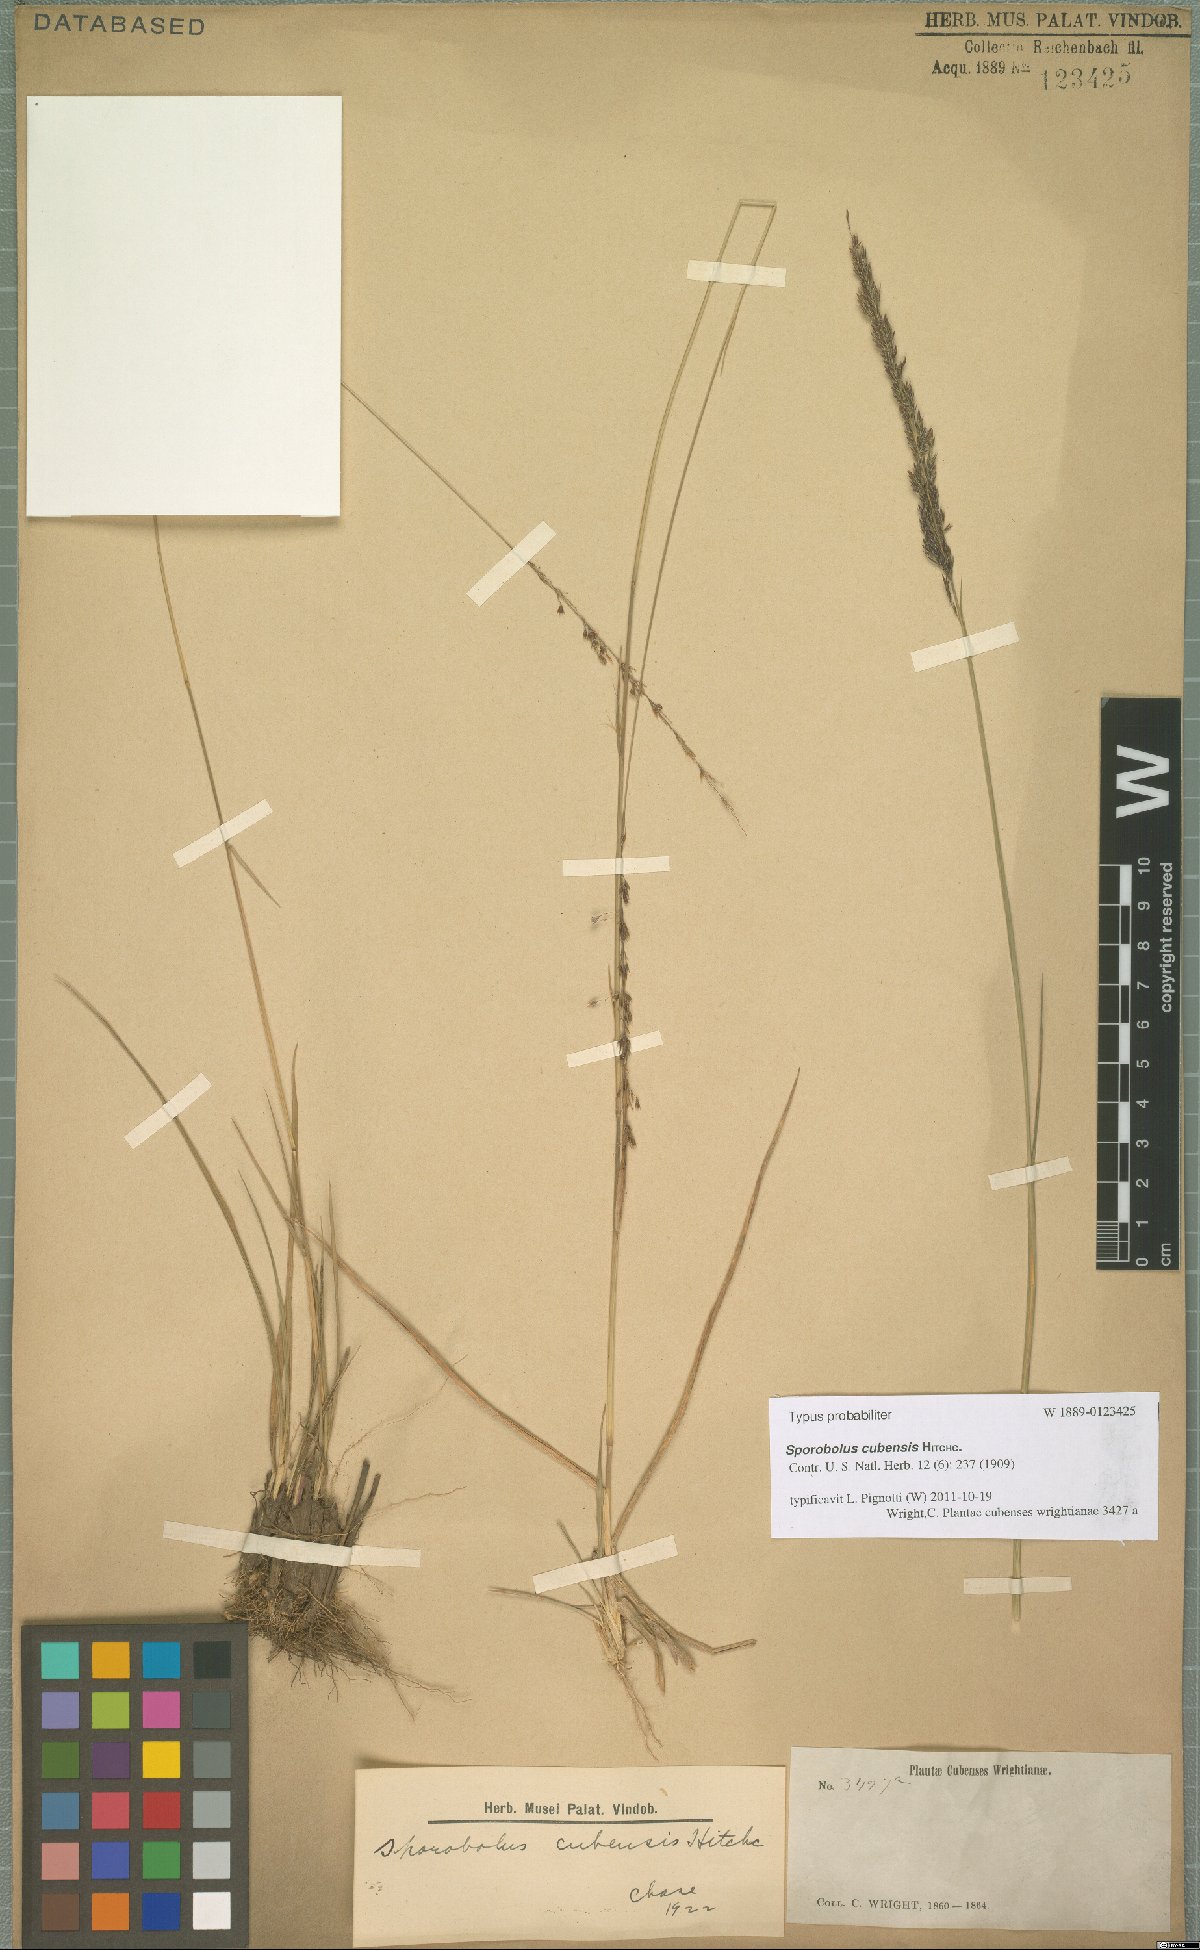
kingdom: Plantae
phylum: Tracheophyta
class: Liliopsida
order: Poales
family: Poaceae
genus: Sporobolus
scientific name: Sporobolus cubensis
